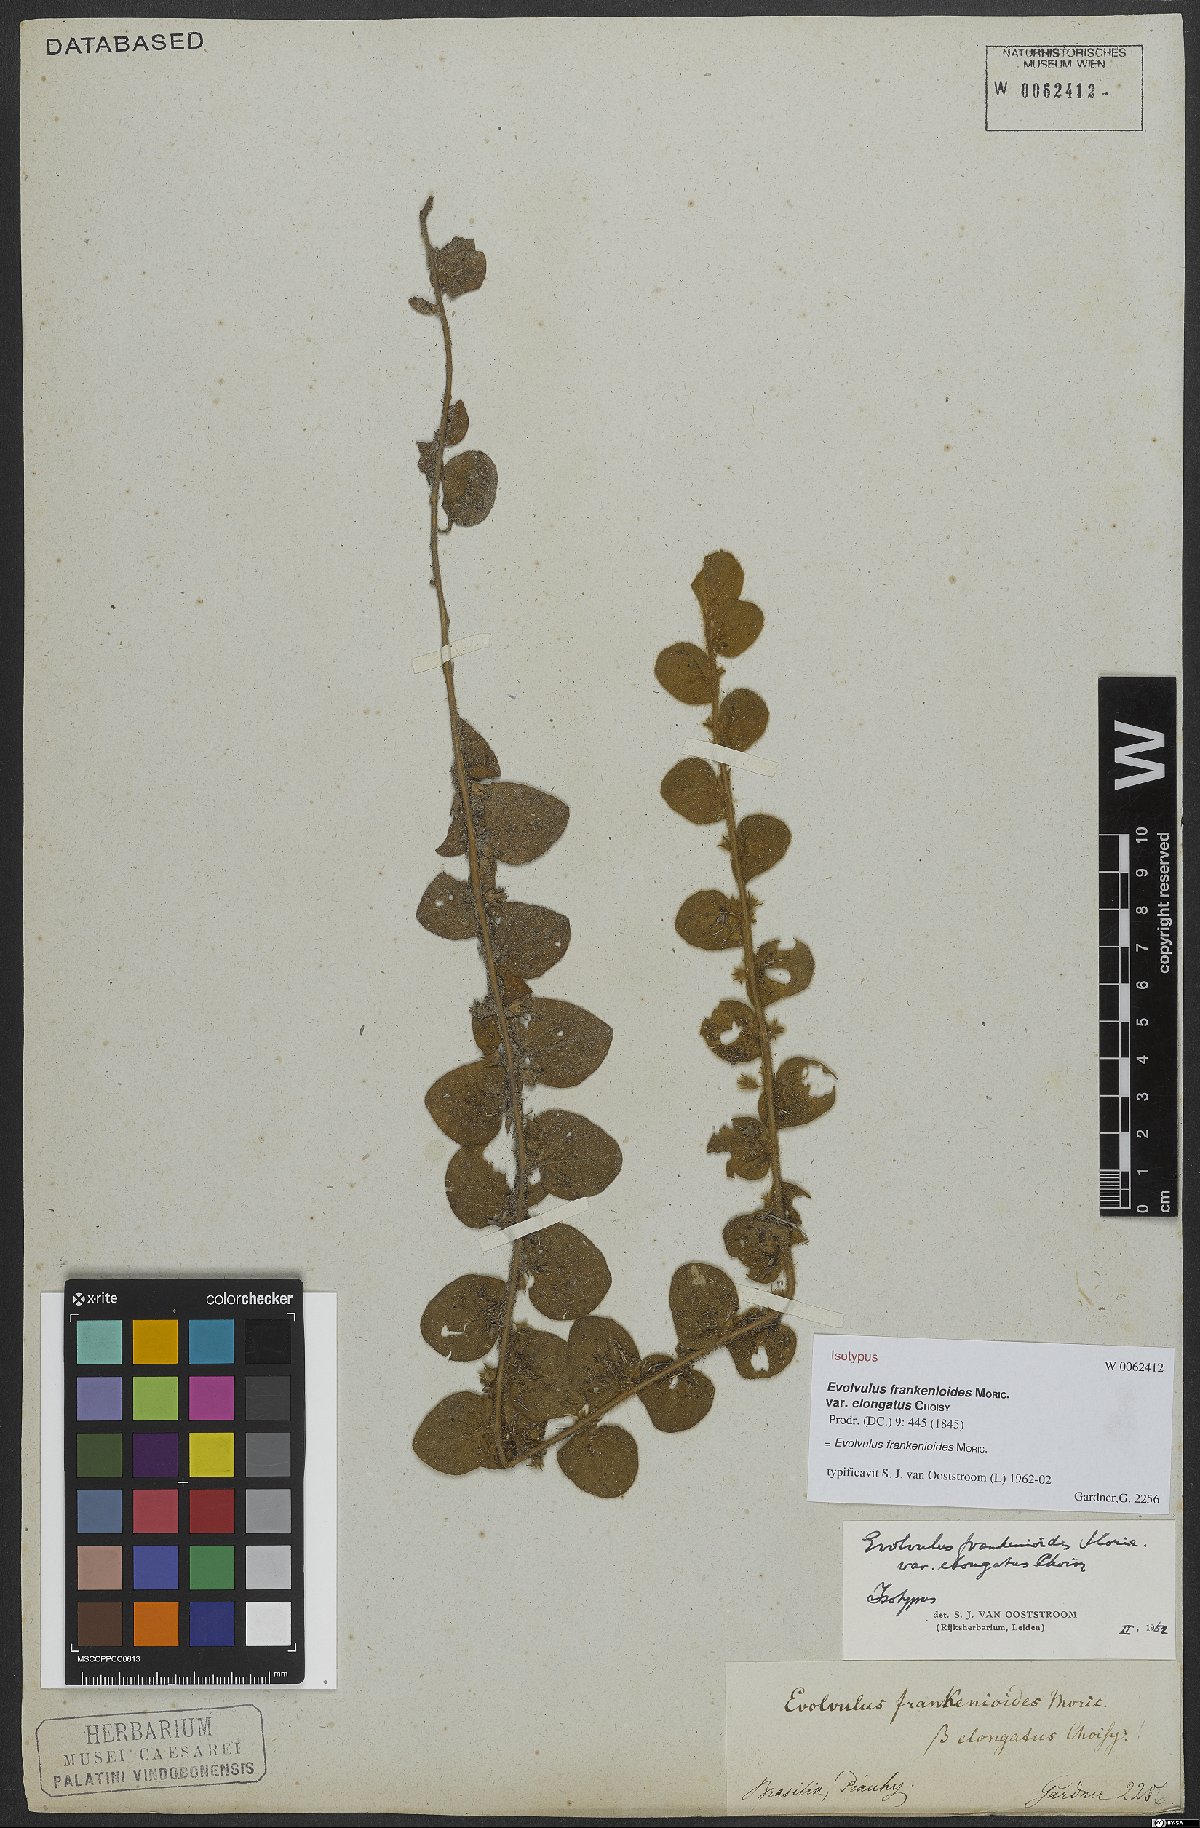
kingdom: Plantae
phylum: Tracheophyta
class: Magnoliopsida
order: Solanales
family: Convolvulaceae
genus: Evolvulus
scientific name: Evolvulus frankenioides
